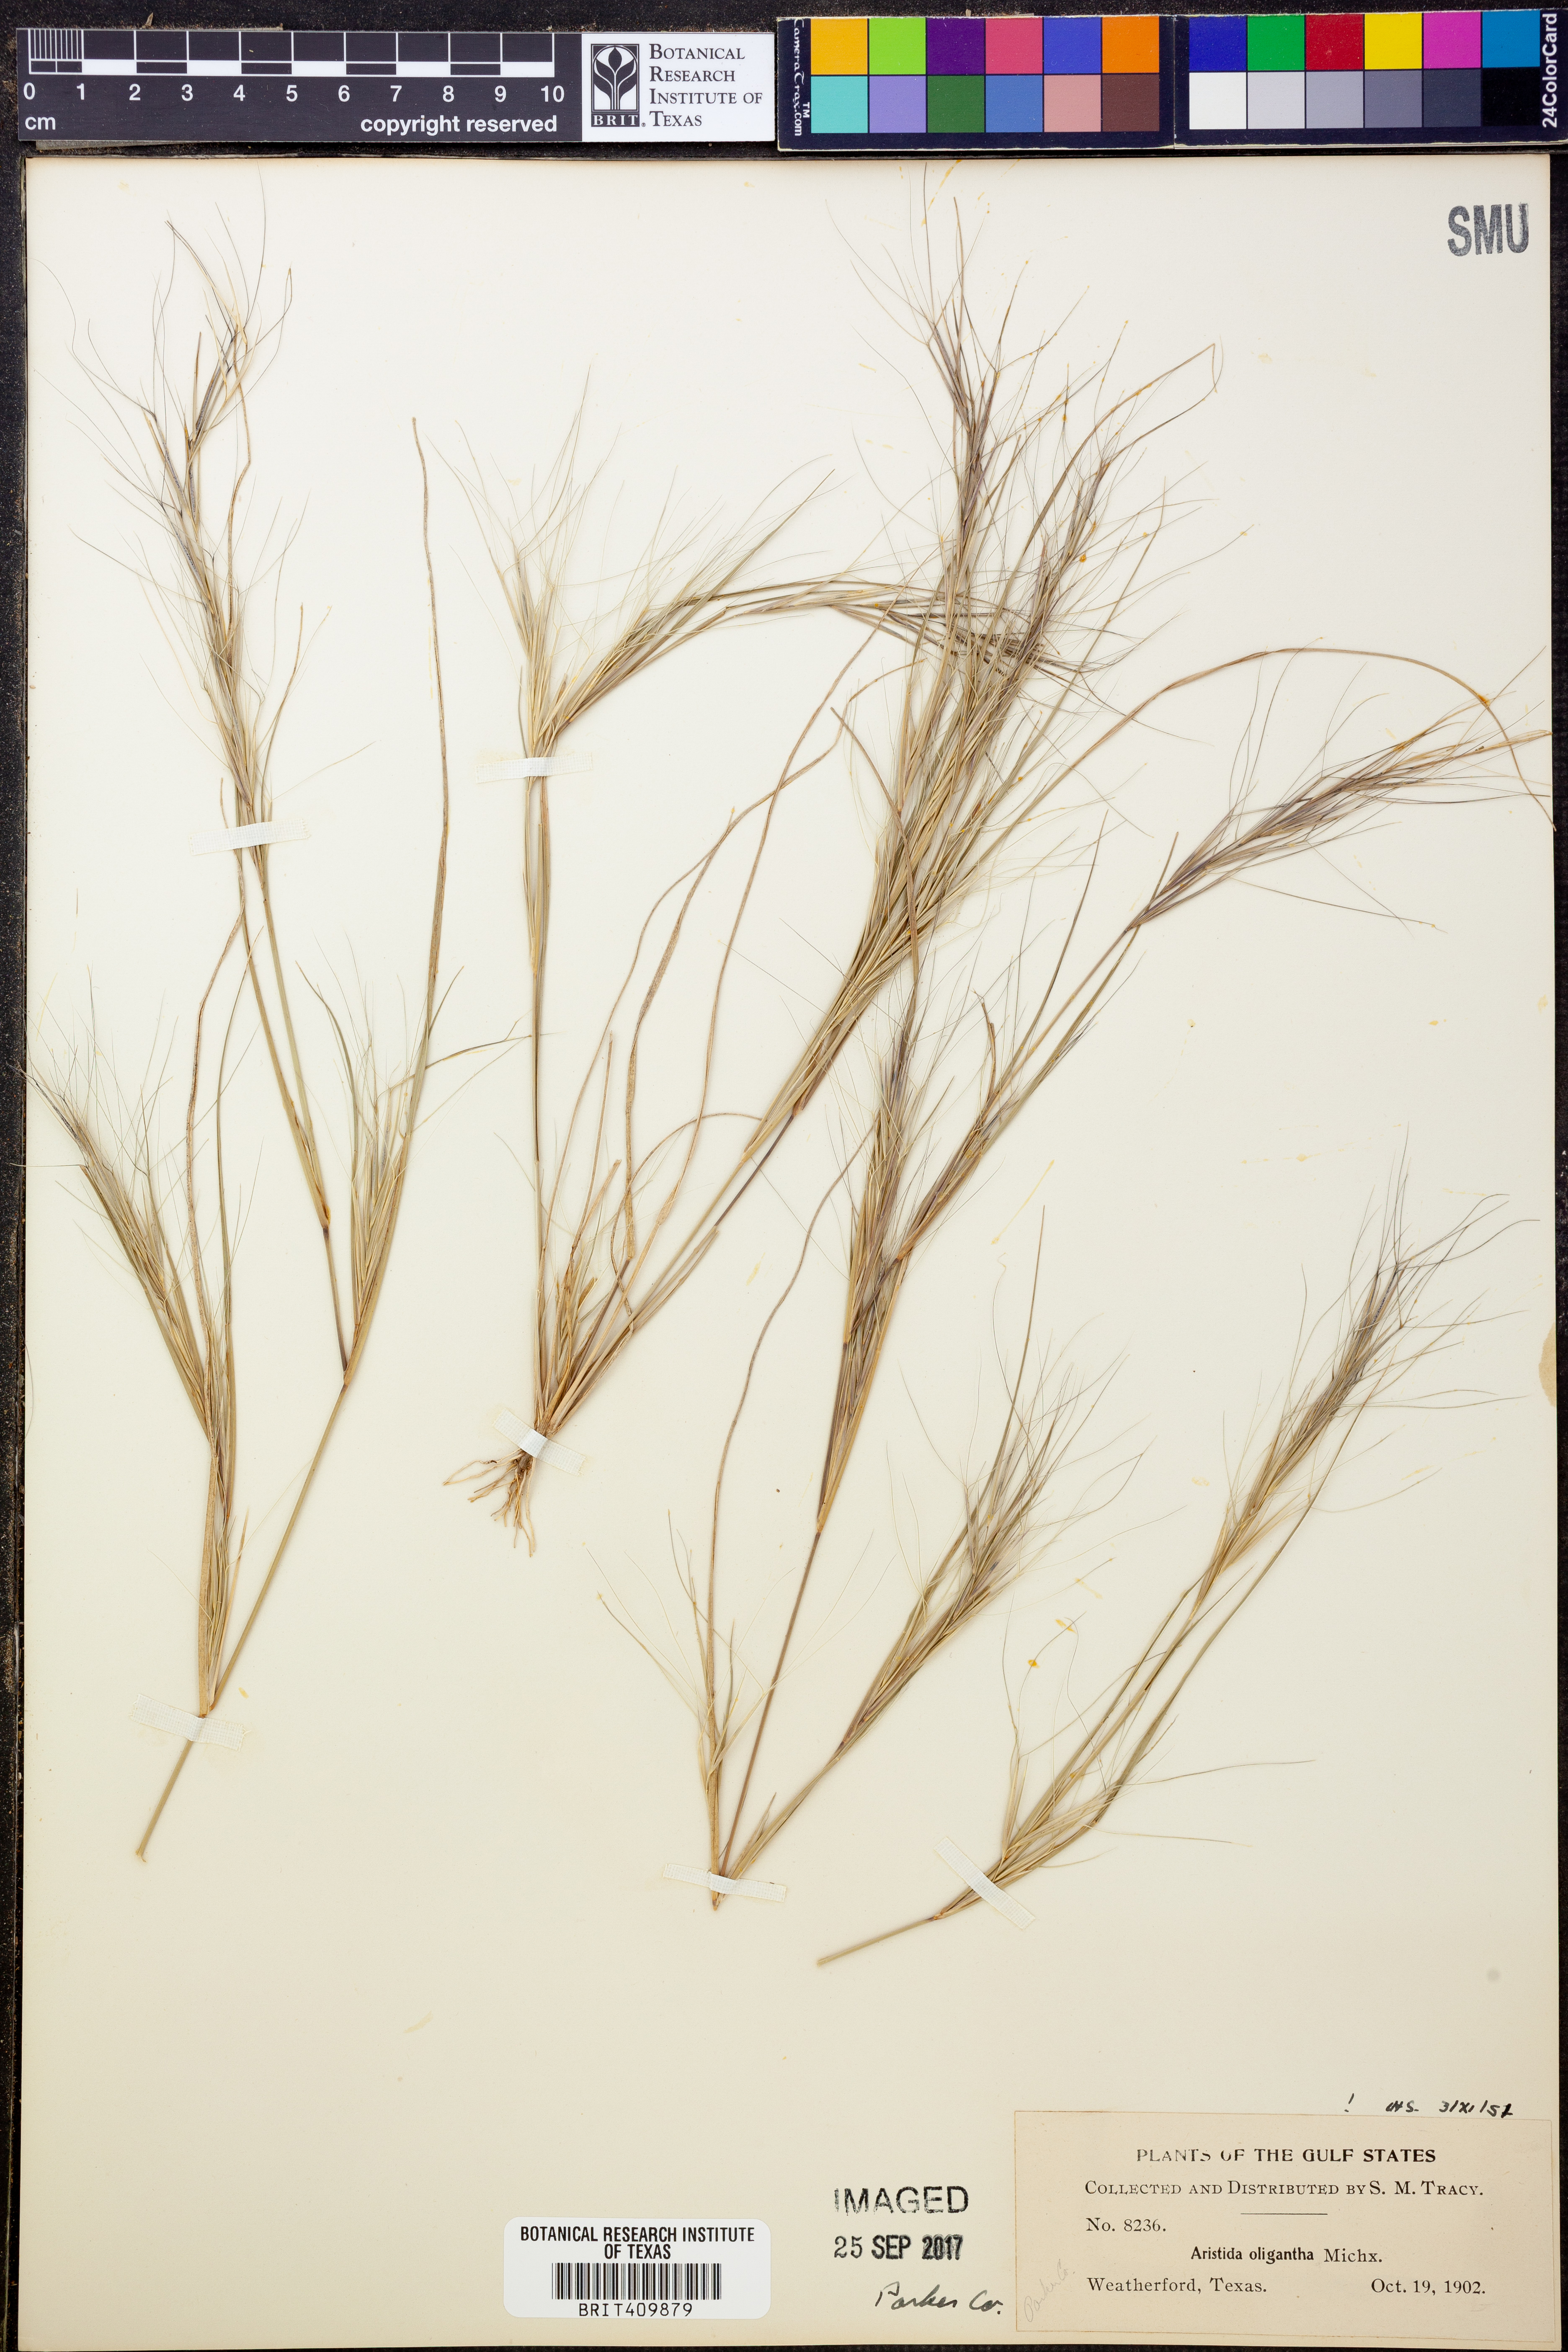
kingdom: Plantae
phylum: Tracheophyta
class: Liliopsida
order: Poales
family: Poaceae
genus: Aristida
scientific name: Aristida oligantha
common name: Few-flowered aristida
